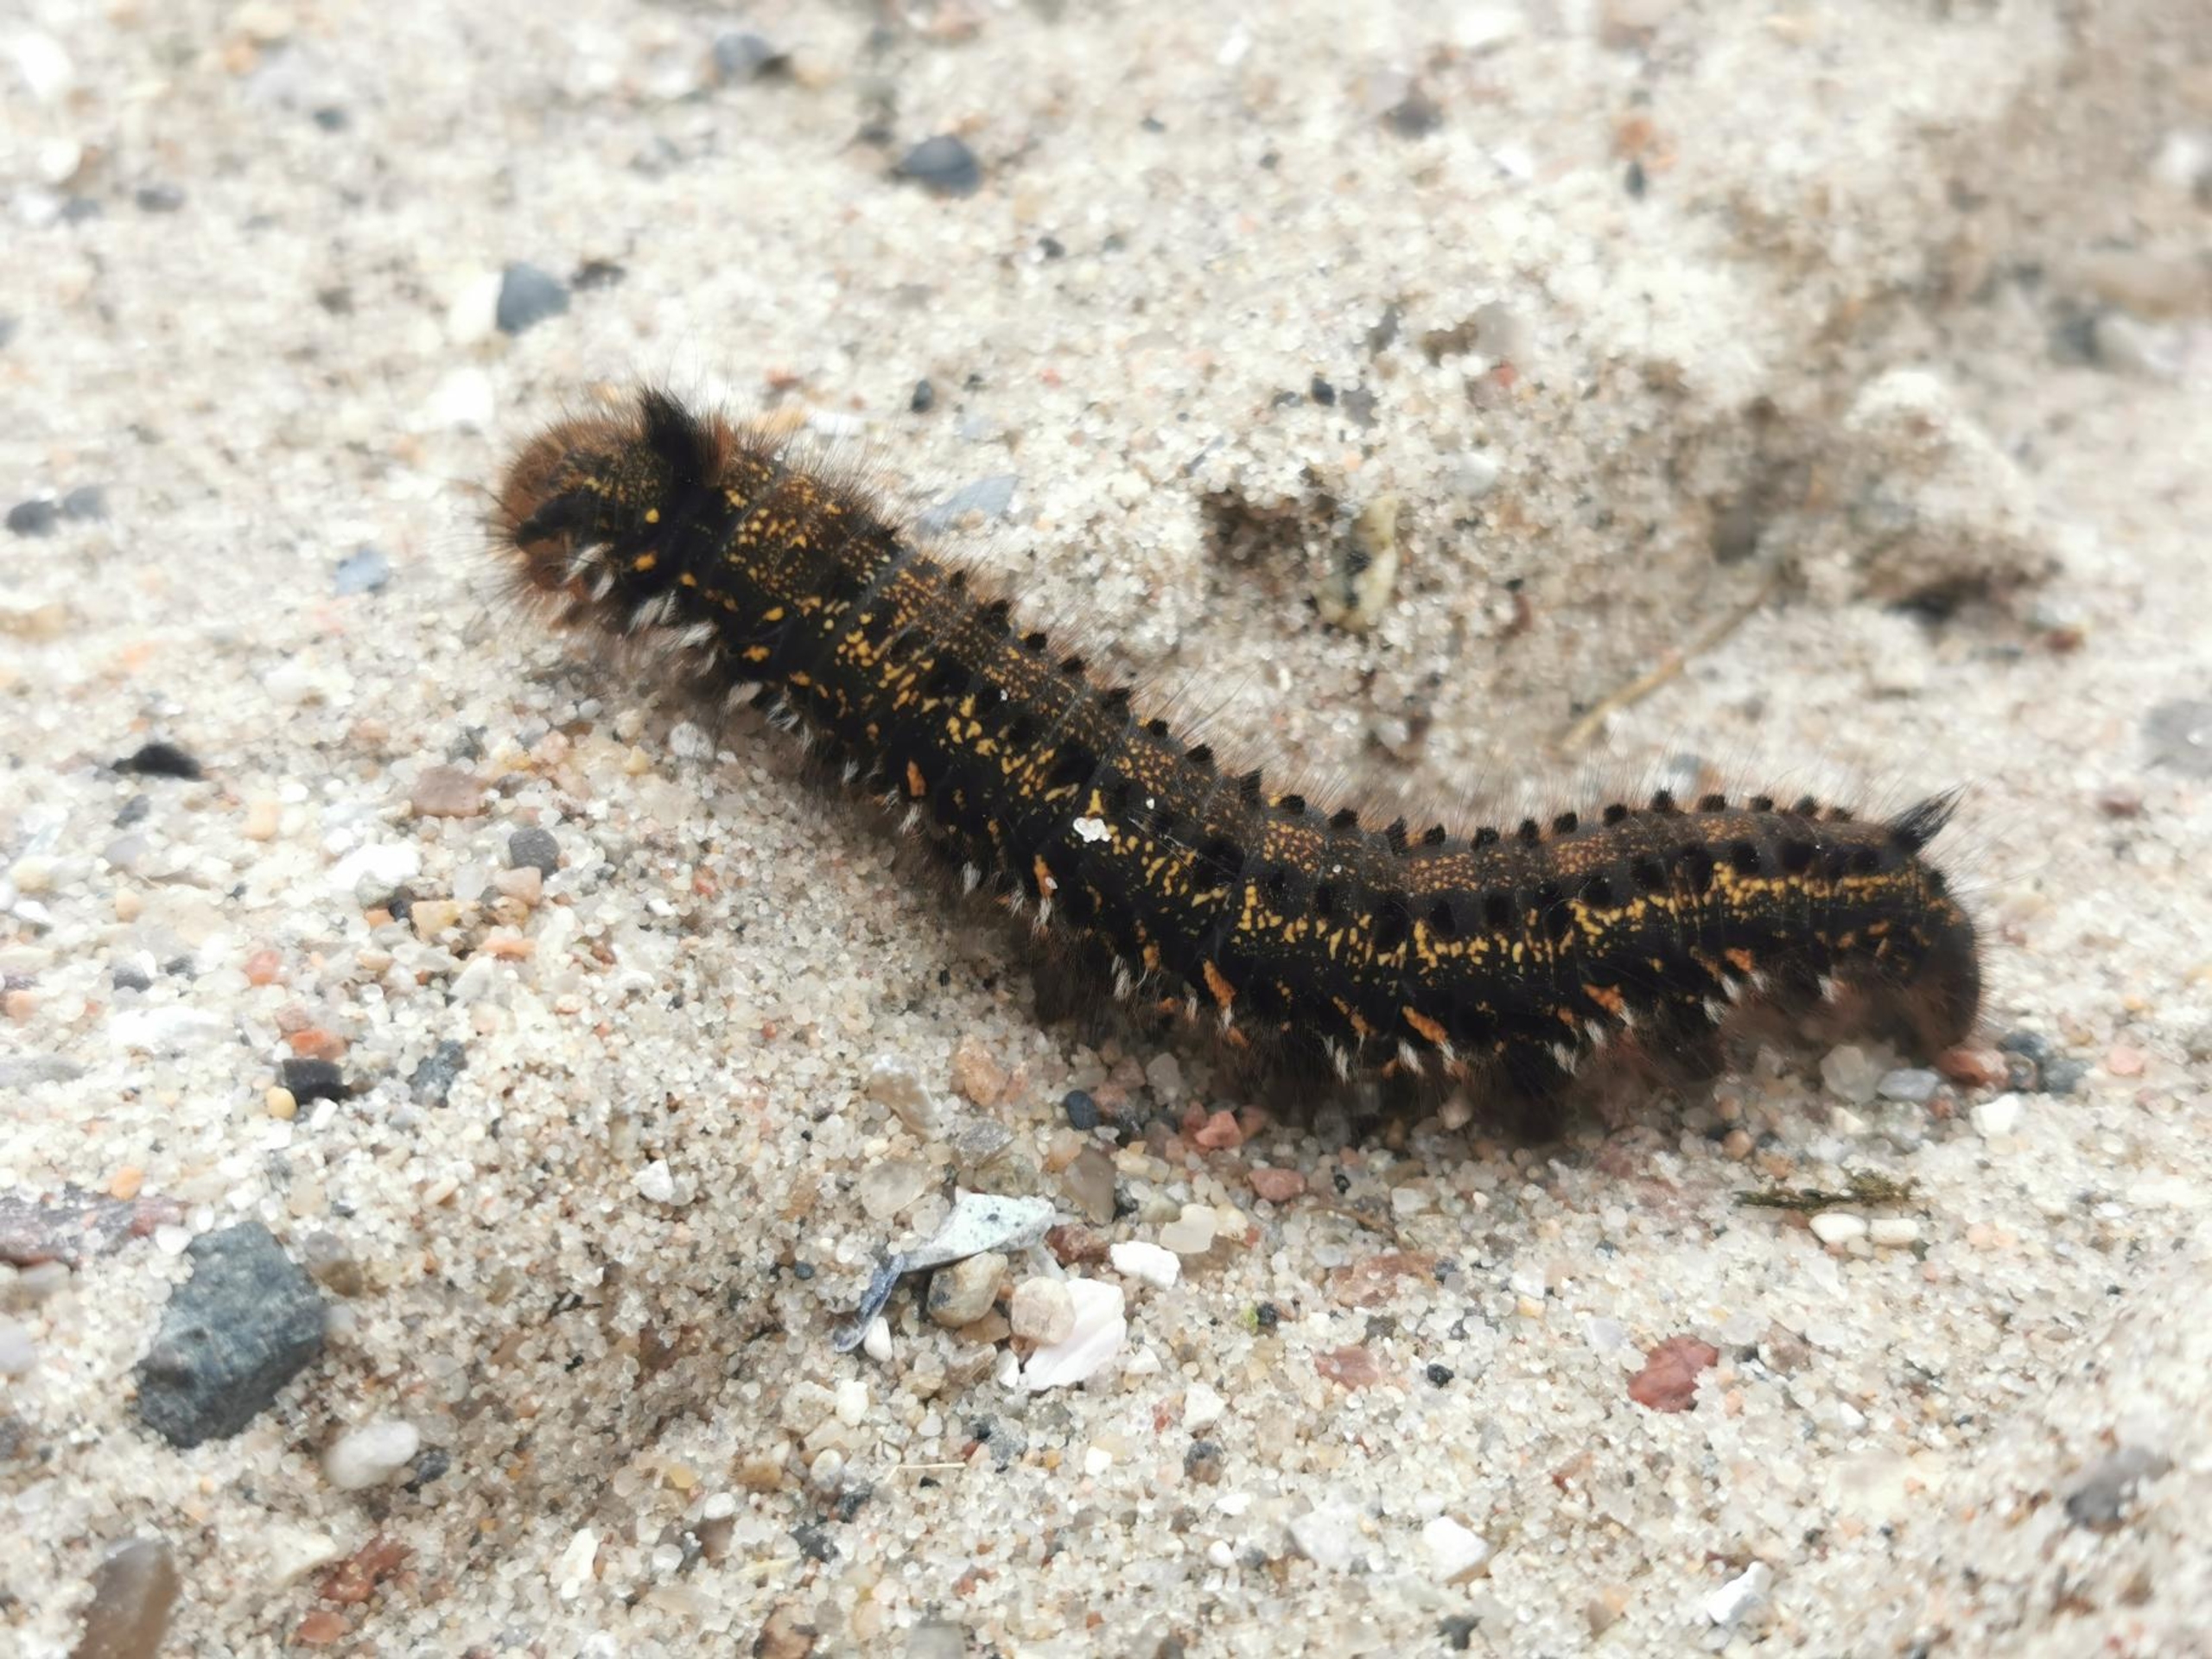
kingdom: Animalia
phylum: Arthropoda
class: Insecta
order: Lepidoptera
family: Lasiocampidae
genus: Euthrix
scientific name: Euthrix potatoria
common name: Græsspinder
